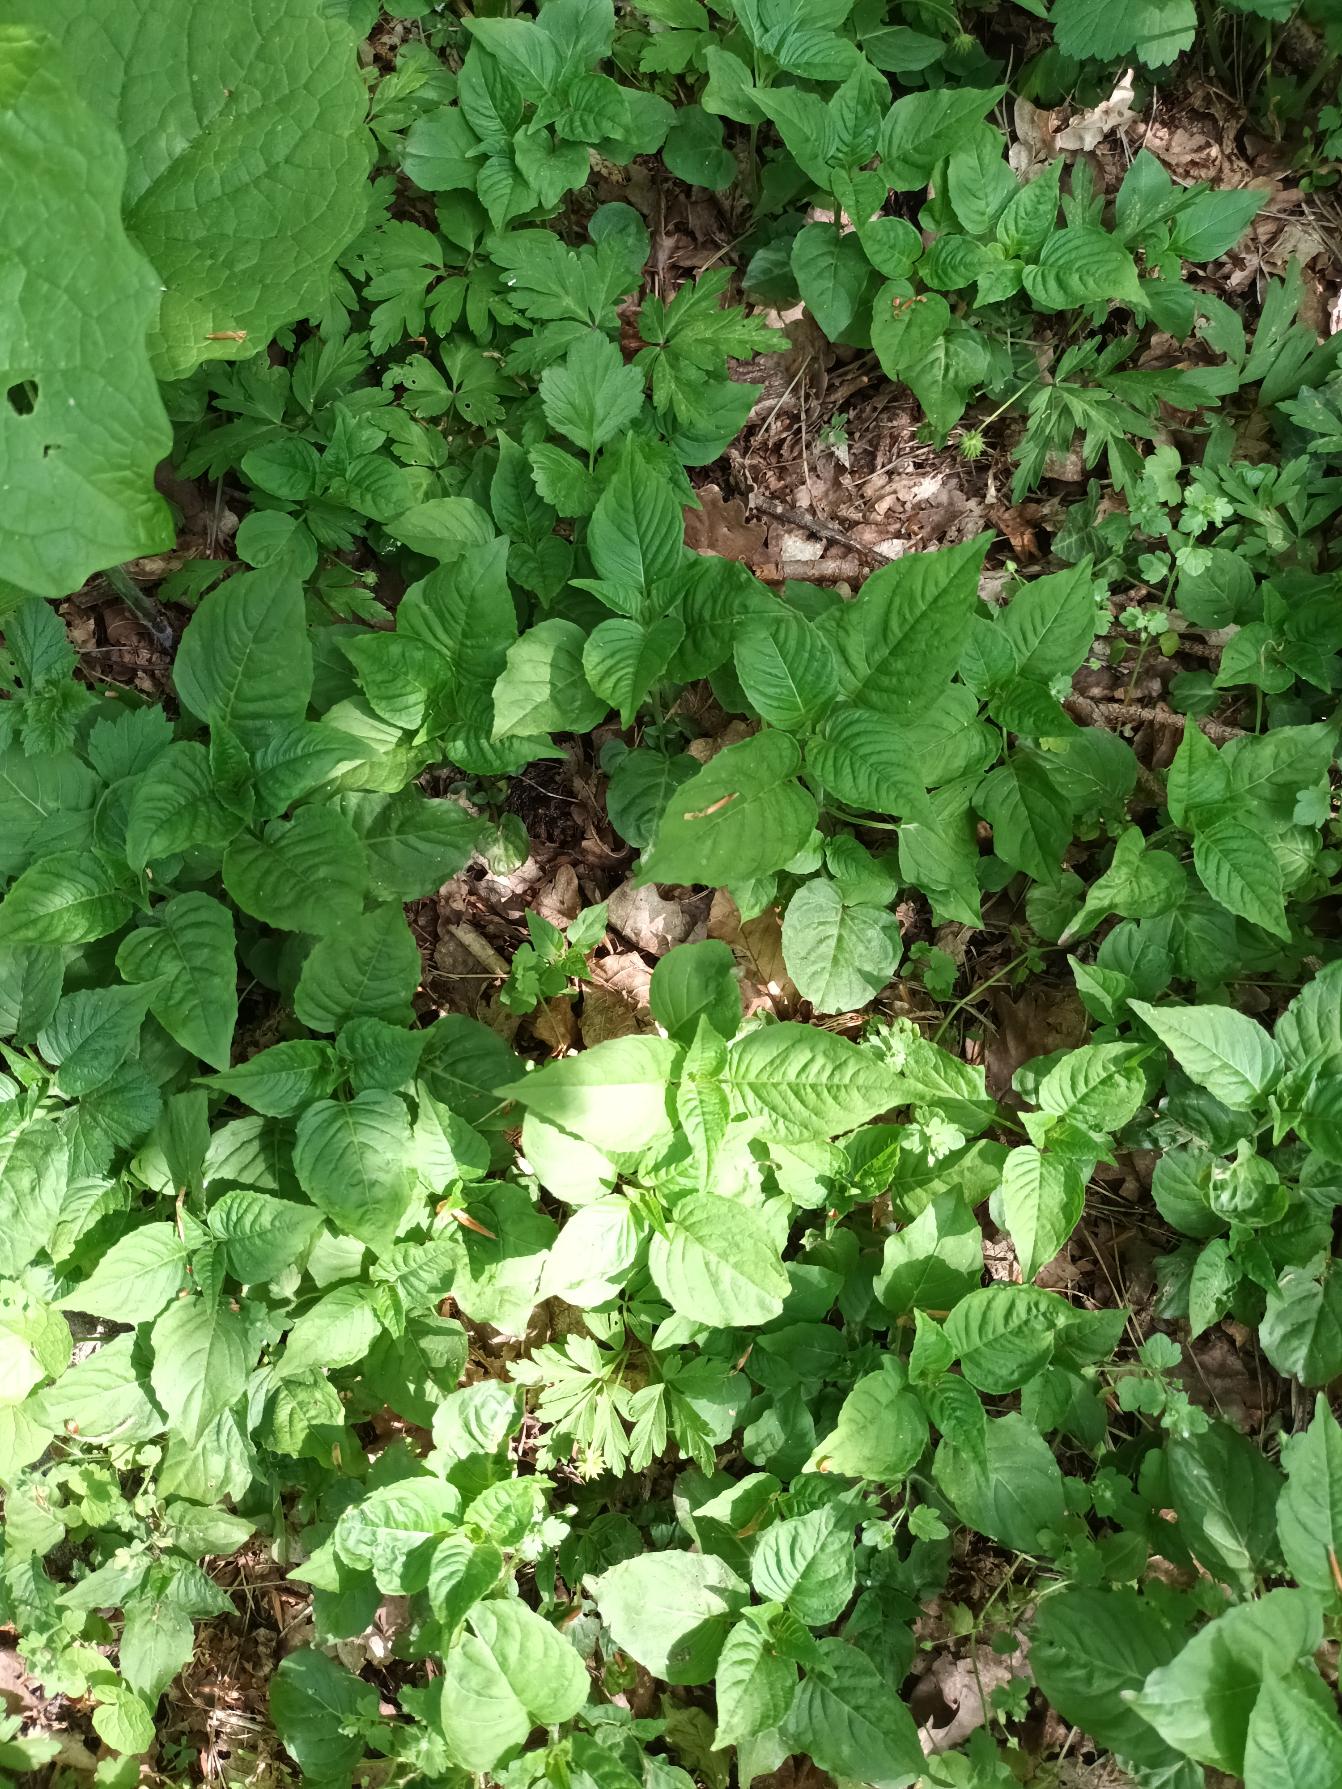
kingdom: Plantae
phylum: Tracheophyta
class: Magnoliopsida
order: Myrtales
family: Onagraceae
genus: Circaea
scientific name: Circaea lutetiana
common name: Dunet steffensurt
